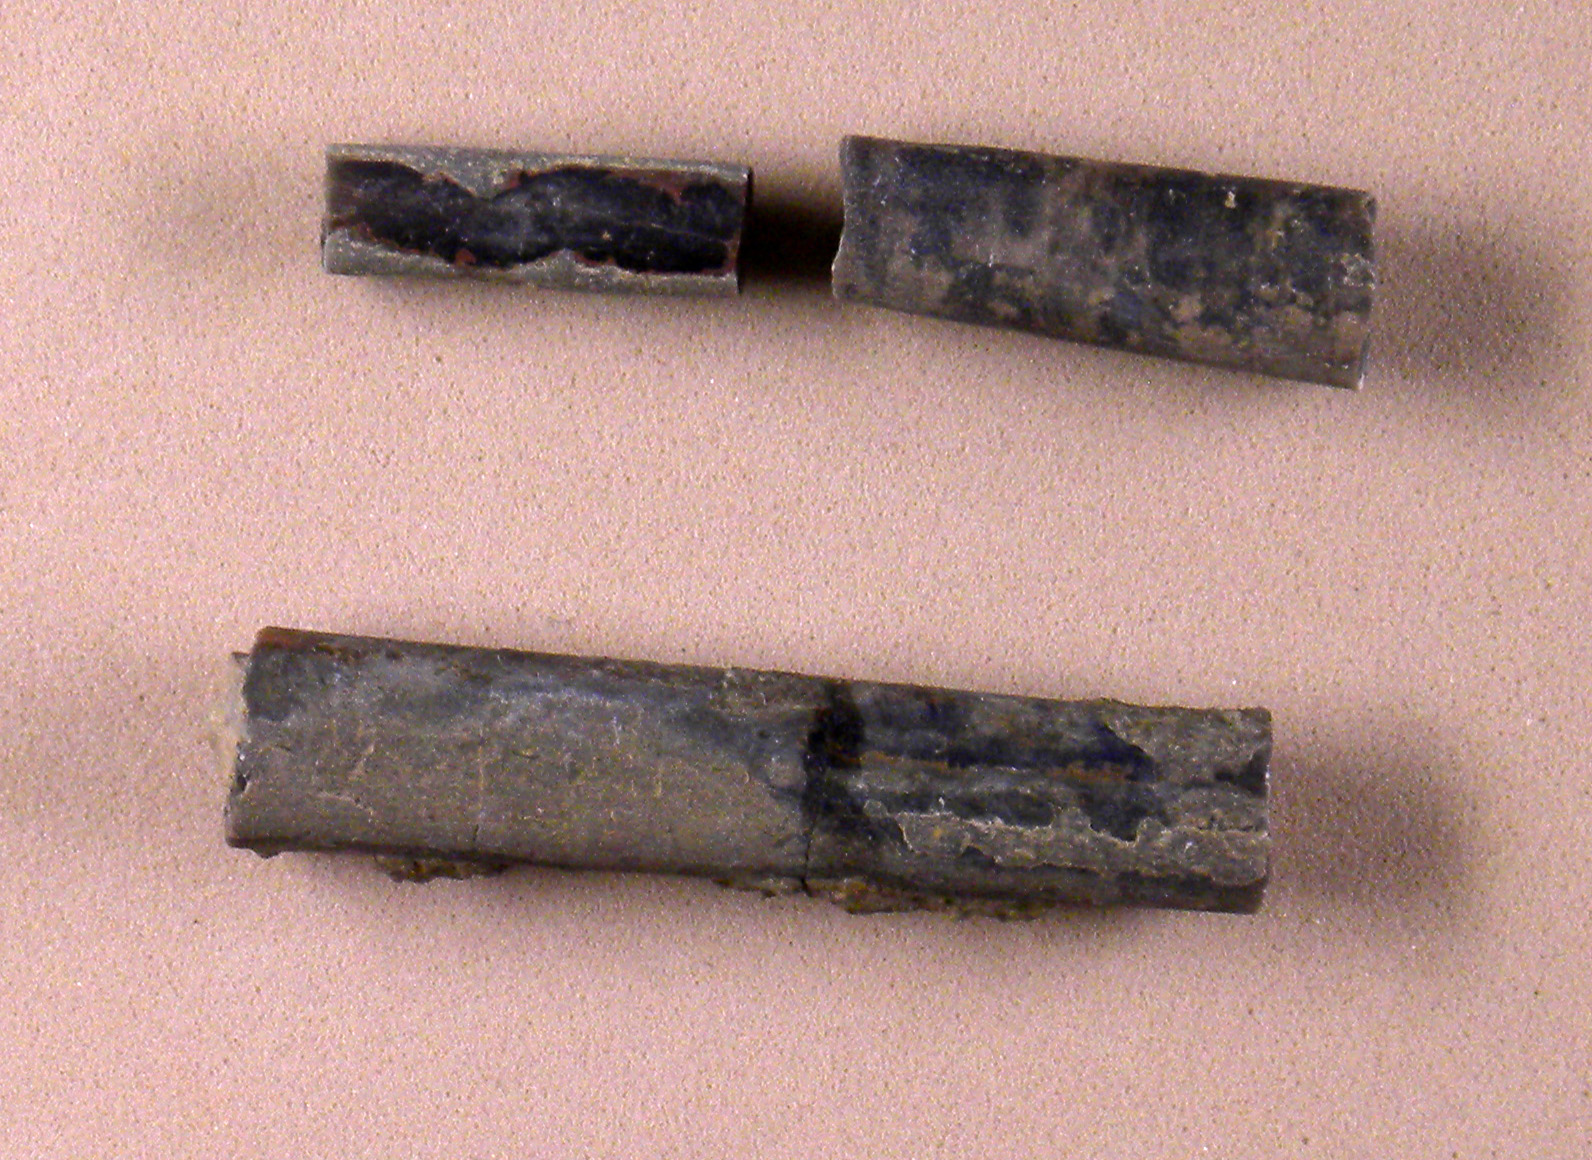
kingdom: Animalia
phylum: Mollusca
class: Cephalopoda
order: Belemnitida
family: Megateuthididae
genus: Acrocoelites
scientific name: Acrocoelites bobeti
